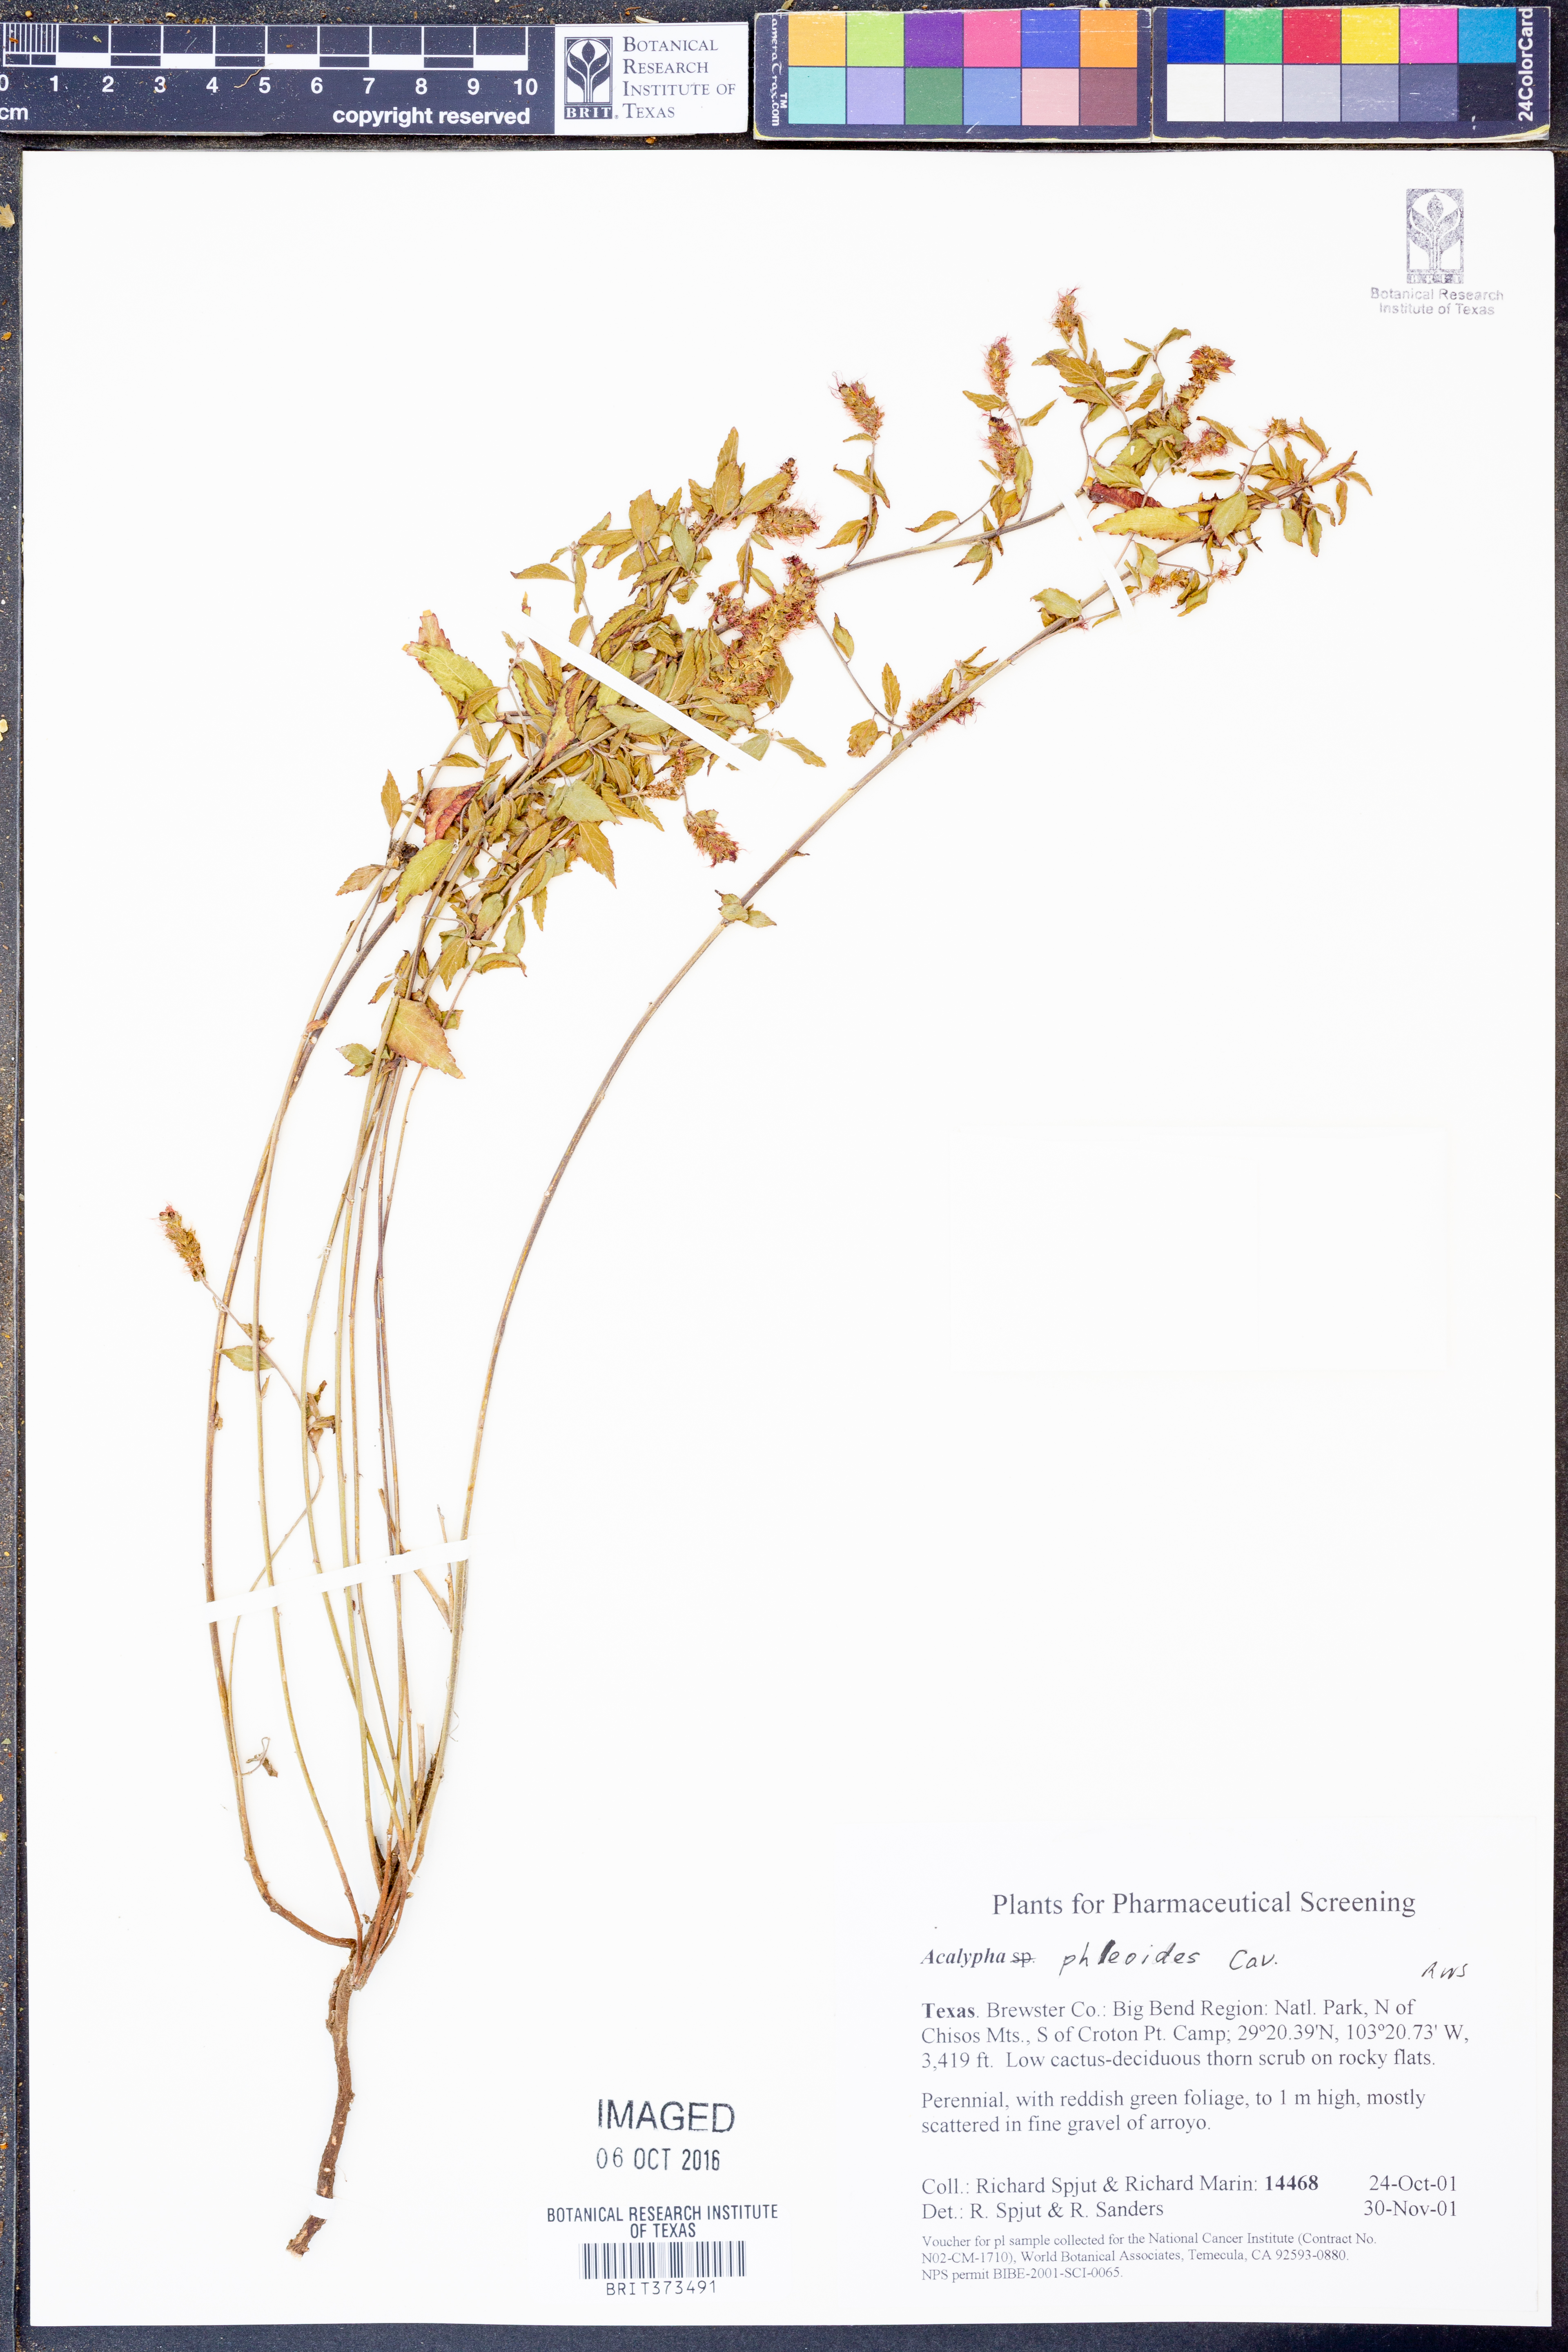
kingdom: Plantae
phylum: Tracheophyta
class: Magnoliopsida
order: Malpighiales
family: Euphorbiaceae
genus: Acalypha
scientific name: Acalypha phleoides
